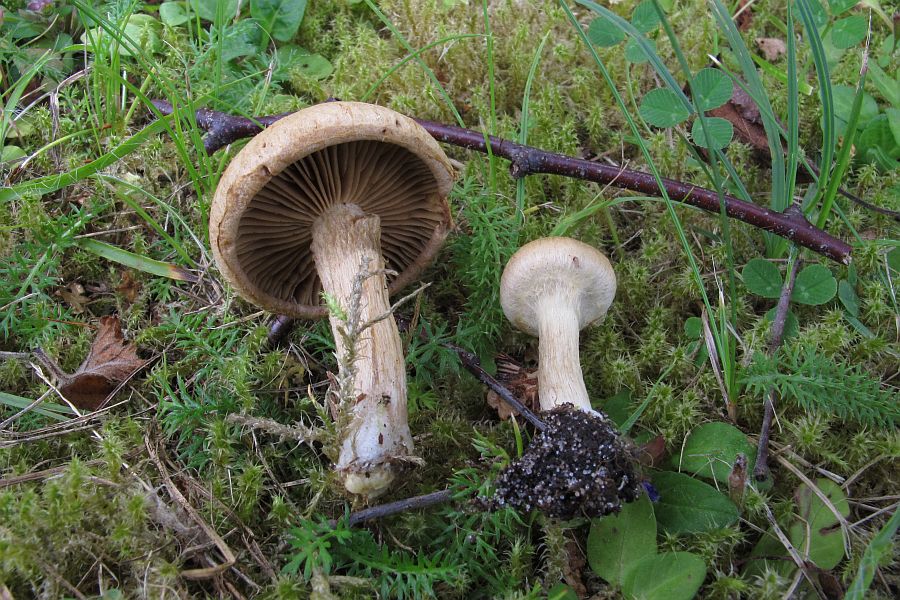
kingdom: Fungi
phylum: Basidiomycota
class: Agaricomycetes
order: Agaricales
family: Inocybaceae
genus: Mallocybe
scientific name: Mallocybe agardhii
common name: Agardhs trævlhat
